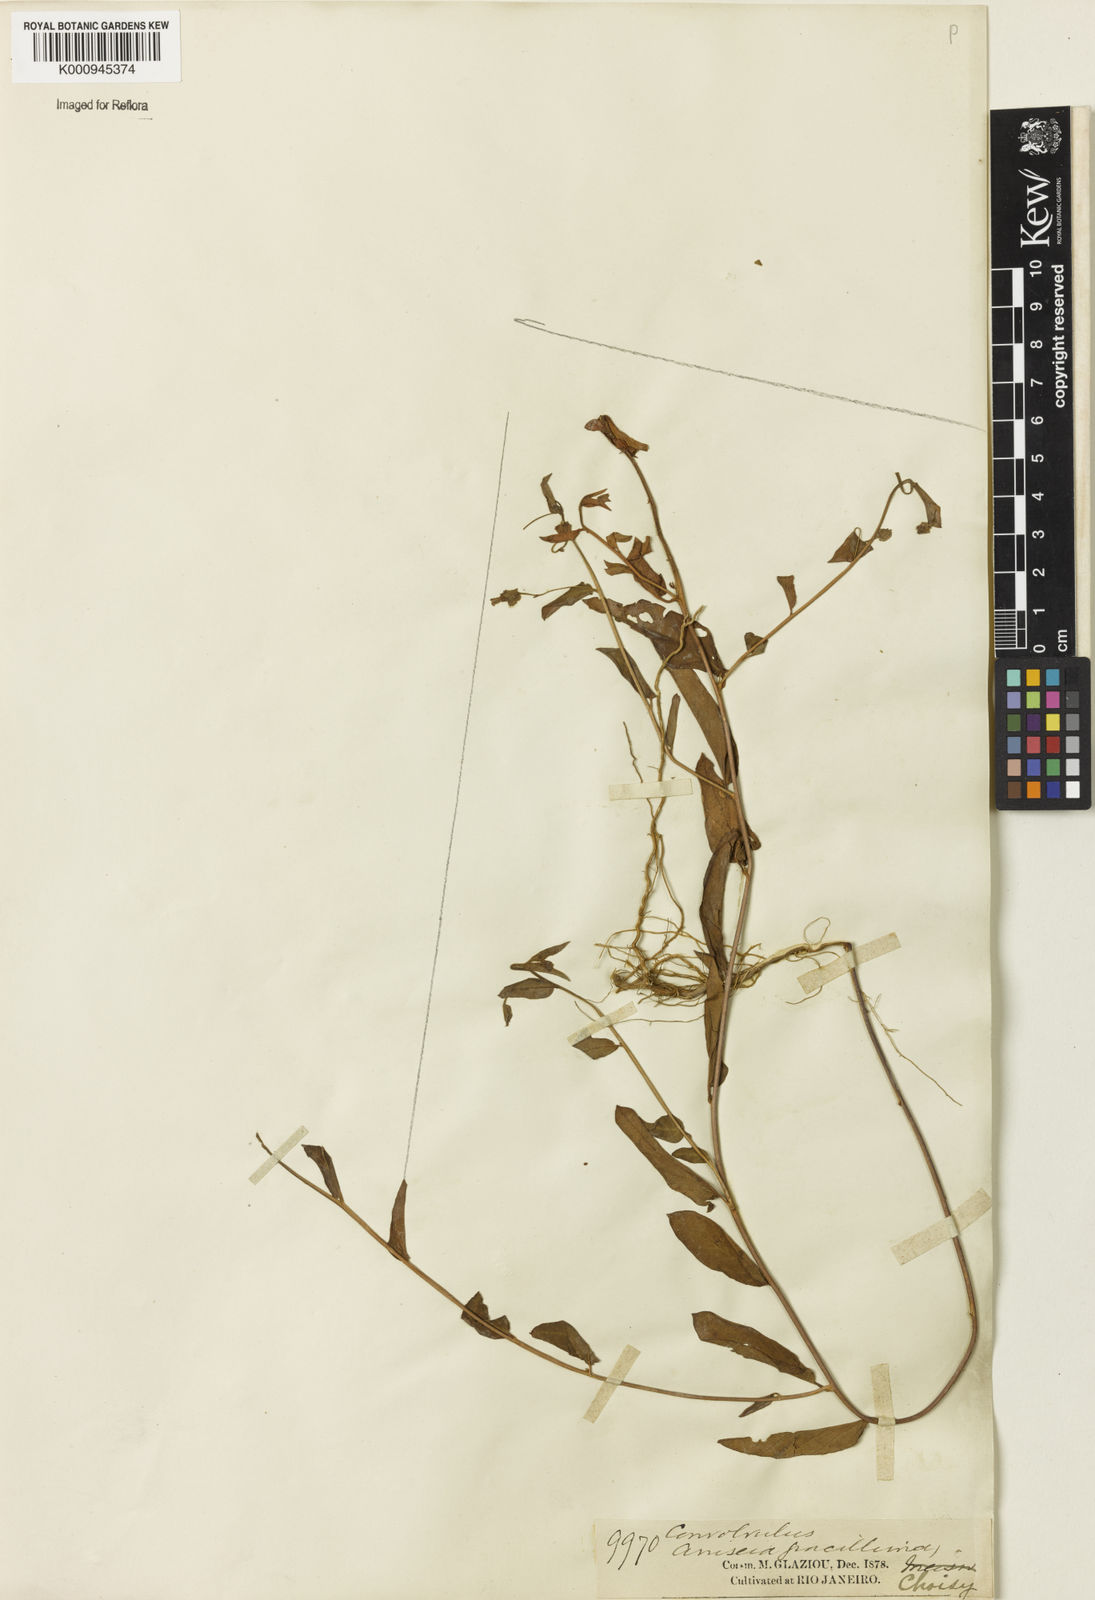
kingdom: Plantae
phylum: Tracheophyta
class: Magnoliopsida
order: Solanales
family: Convolvulaceae
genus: Jacquemontia
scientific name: Jacquemontia gracillima
